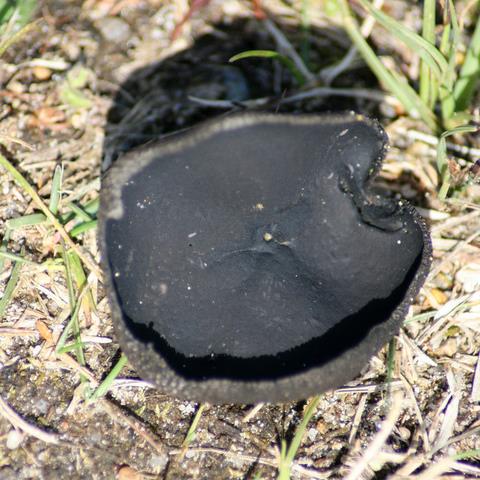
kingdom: Fungi
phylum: Ascomycota
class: Pezizomycetes
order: Pezizales
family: Helvellaceae
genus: Helvella
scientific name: Helvella corium
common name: pile-foldhat
